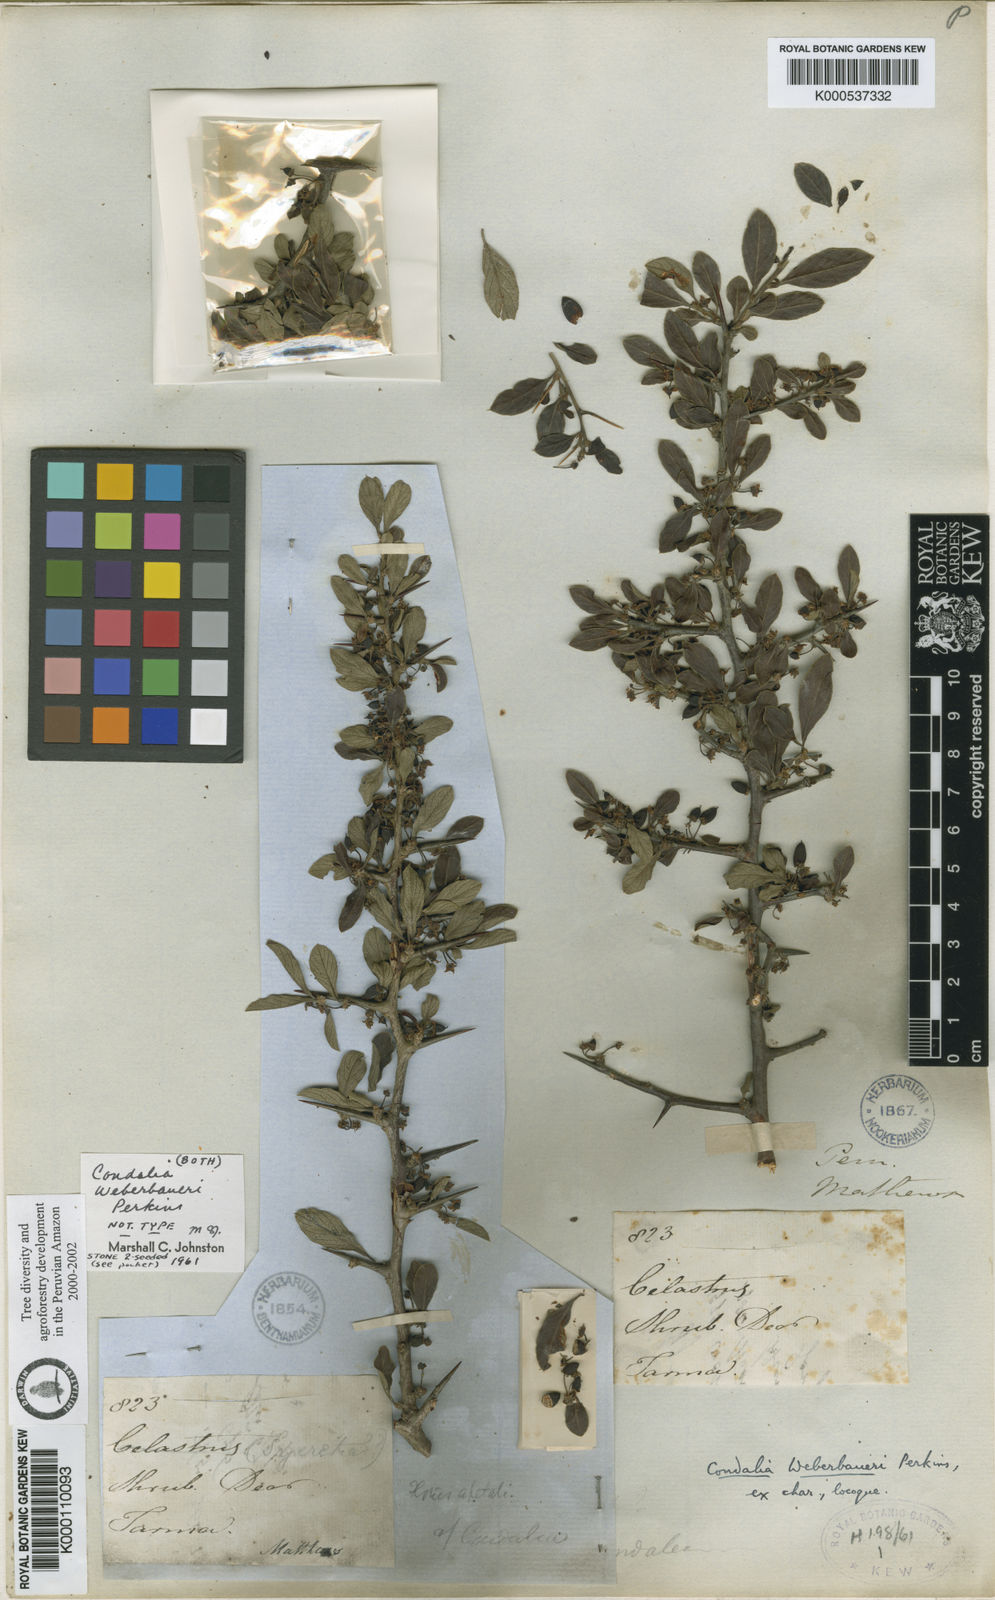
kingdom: Plantae
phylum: Tracheophyta
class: Magnoliopsida
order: Rosales
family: Rhamnaceae
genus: Condalia
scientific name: Condalia weberbaueri
